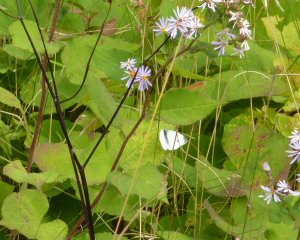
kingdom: Animalia
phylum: Arthropoda
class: Insecta
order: Lepidoptera
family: Pieridae
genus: Pieris
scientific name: Pieris rapae
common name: Cabbage White
